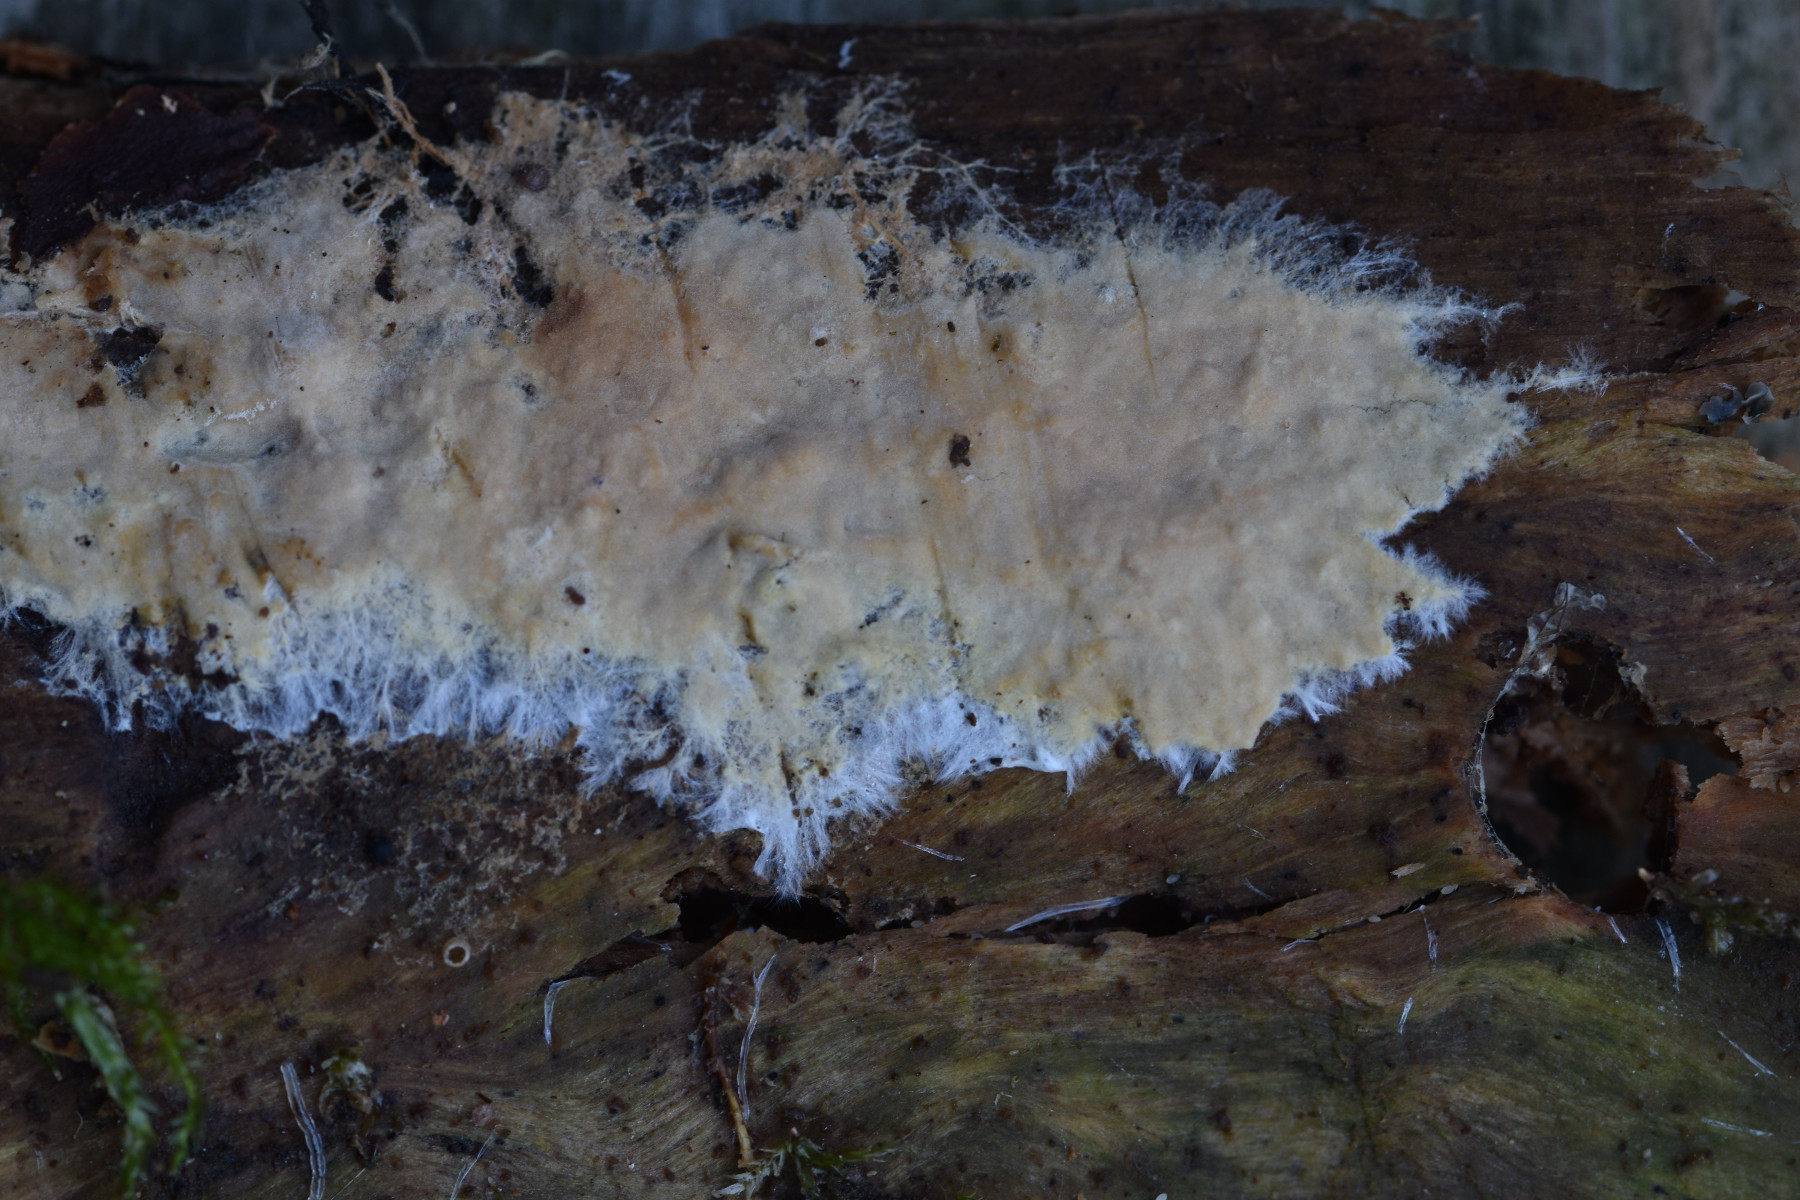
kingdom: Fungi
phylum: Basidiomycota
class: Agaricomycetes
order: Russulales
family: Peniophoraceae
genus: Asterostroma
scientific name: Asterostroma laxum
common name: lysrandet stjerneskind
